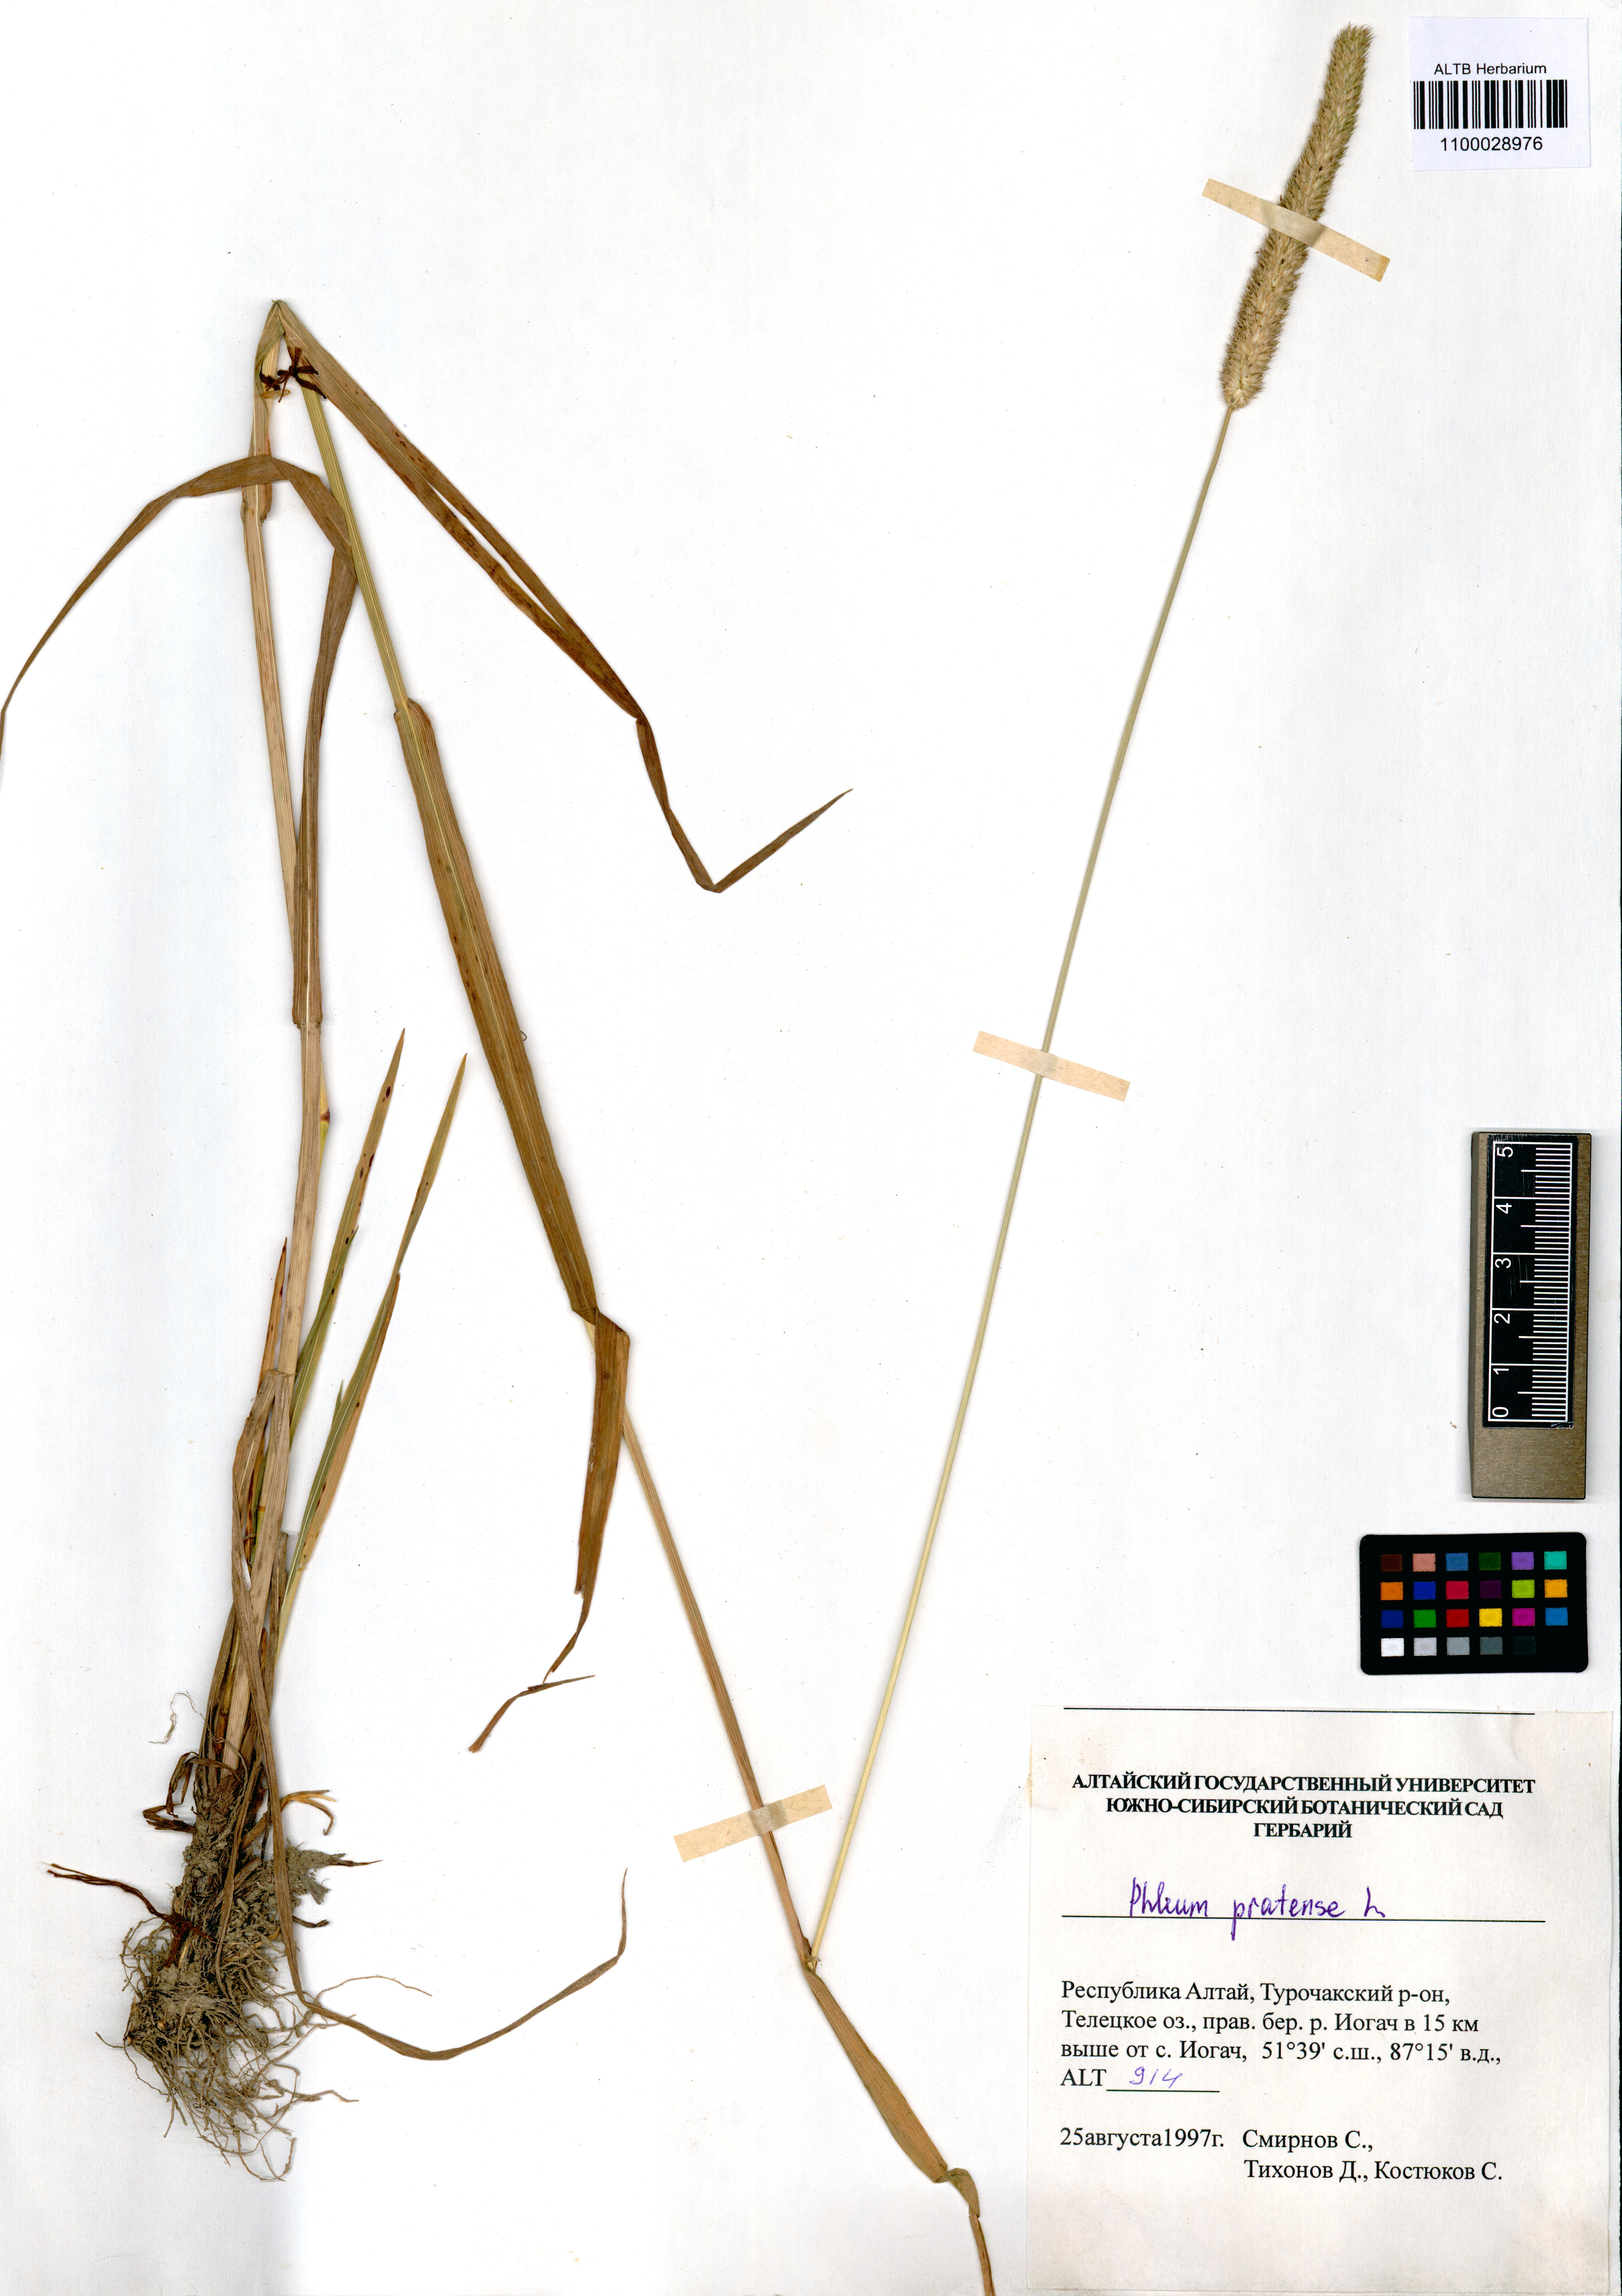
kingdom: Plantae
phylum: Tracheophyta
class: Liliopsida
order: Poales
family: Poaceae
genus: Phleum
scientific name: Phleum pratense
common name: Timothy grass
